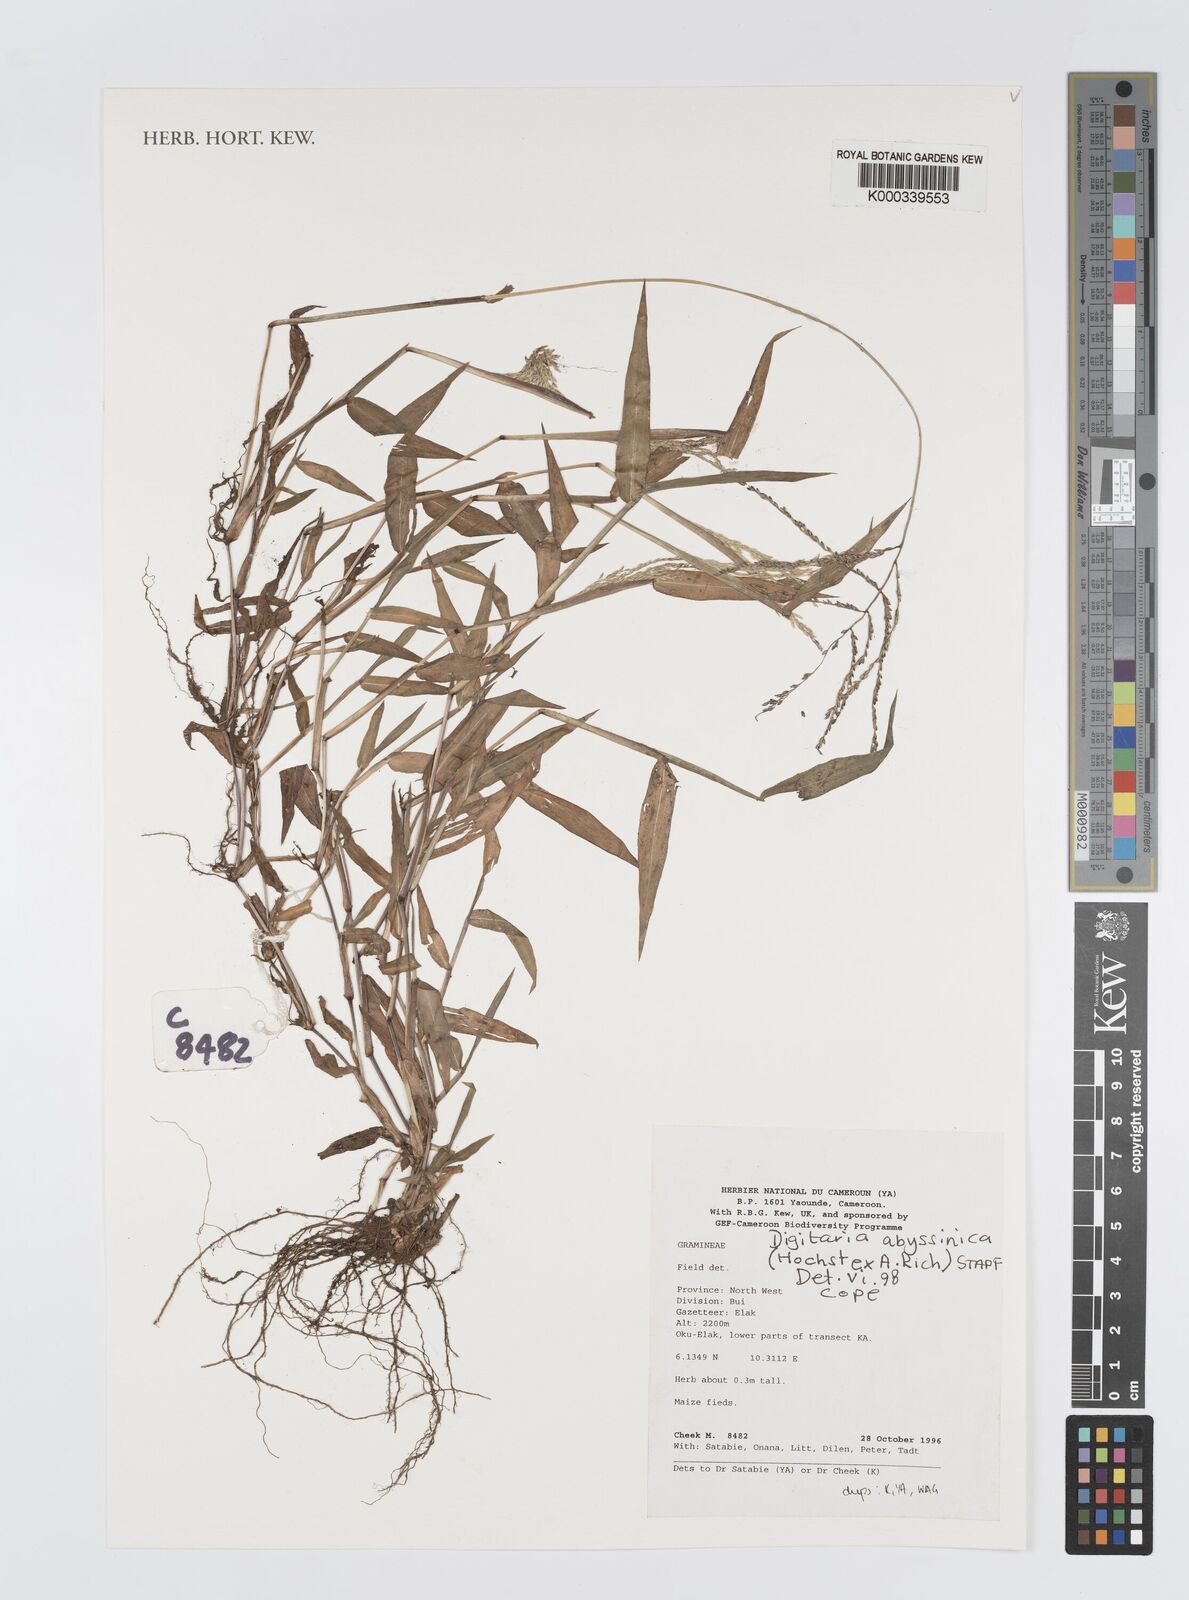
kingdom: Plantae
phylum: Tracheophyta
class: Liliopsida
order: Poales
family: Poaceae
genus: Digitaria
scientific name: Digitaria abyssinica
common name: African couchgrass
